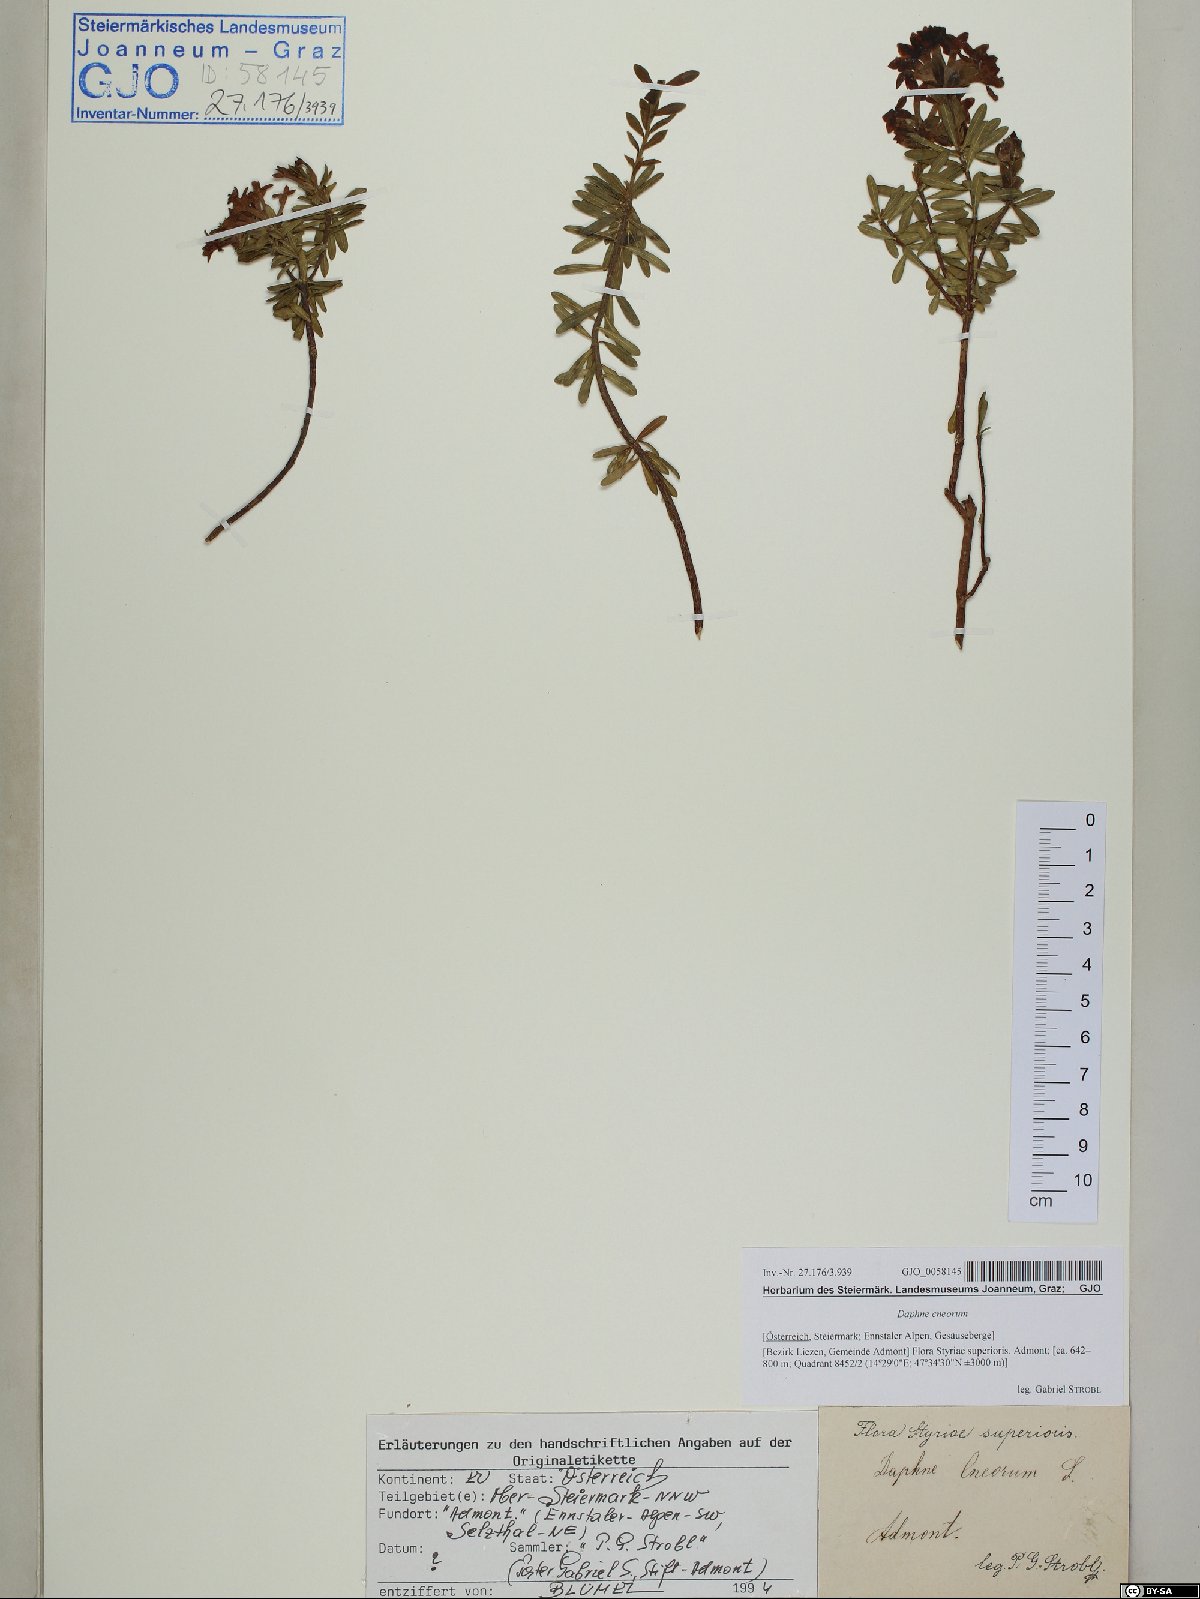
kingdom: Plantae
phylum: Tracheophyta
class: Magnoliopsida
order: Malvales
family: Thymelaeaceae
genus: Daphne
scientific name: Daphne cneorum
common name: Garland-flower
